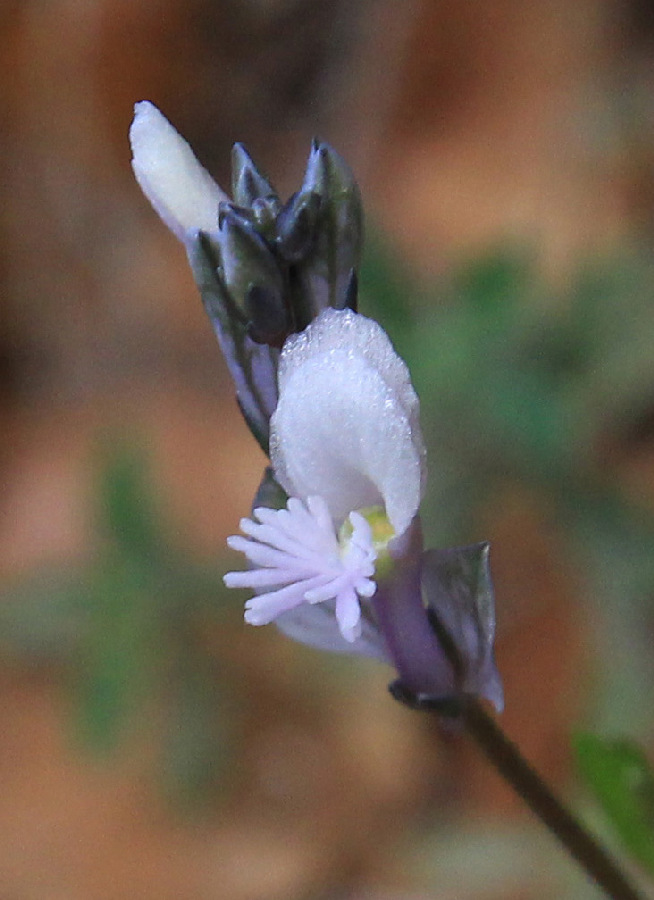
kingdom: Plantae
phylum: Tracheophyta
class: Magnoliopsida
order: Fabales
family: Polygalaceae
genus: Polygala
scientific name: Polygala venulosa
